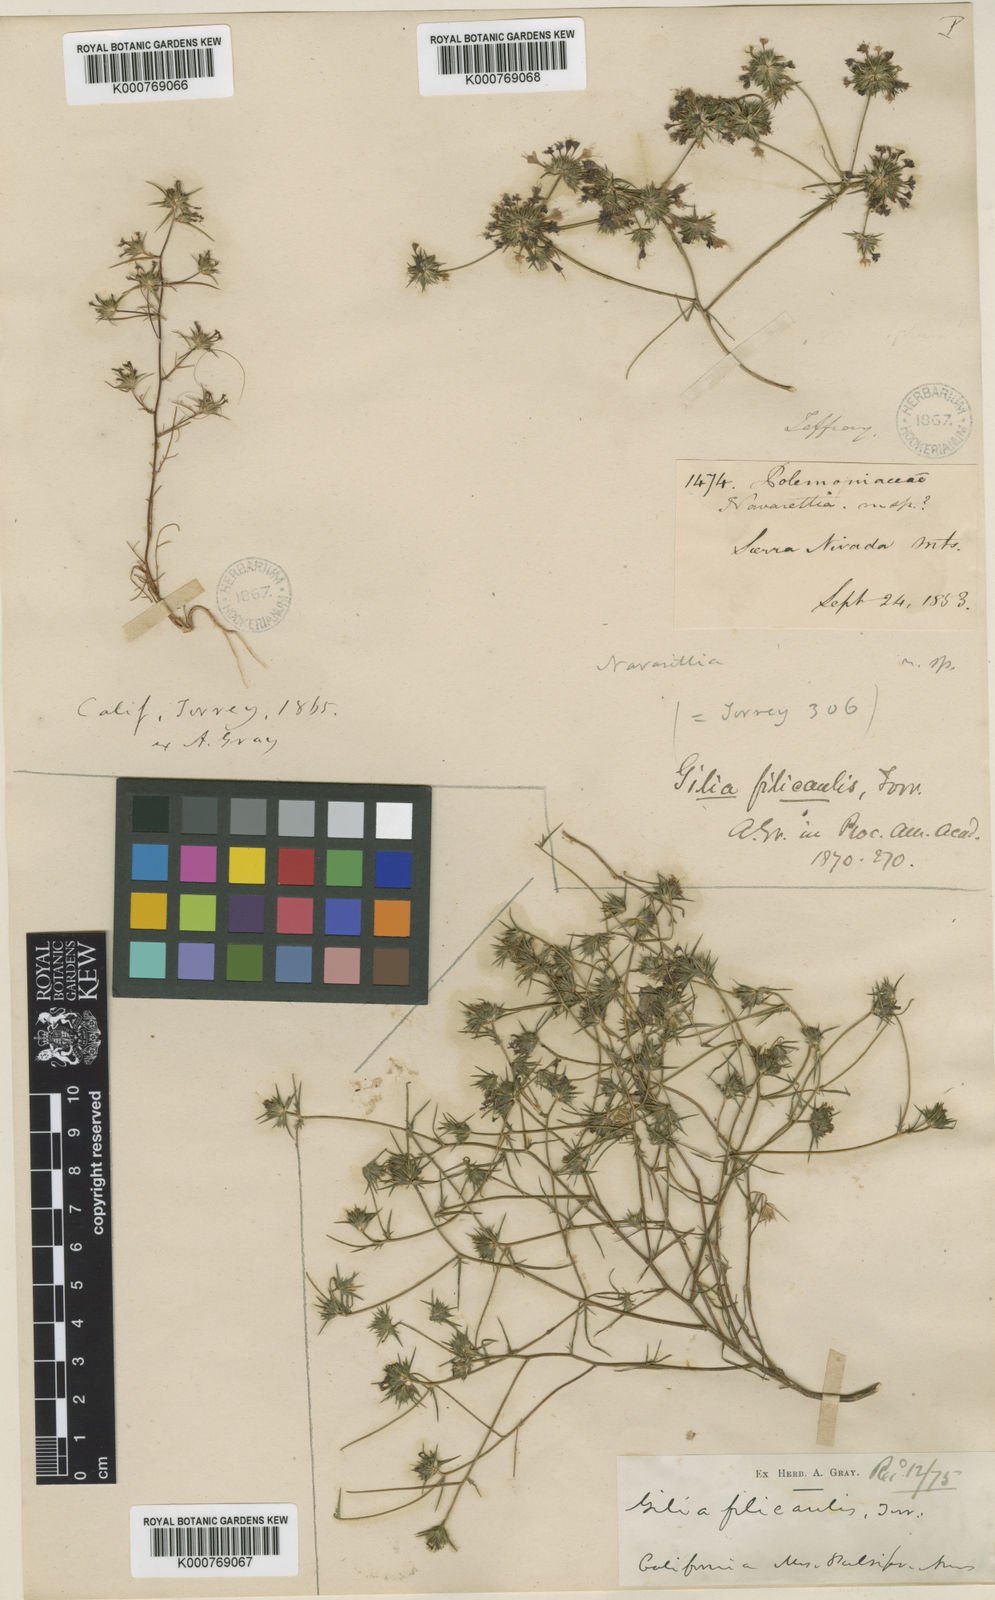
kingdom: Plantae
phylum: Tracheophyta
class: Magnoliopsida
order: Ericales
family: Polemoniaceae
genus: Navarretia
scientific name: Navarretia filicaulis
